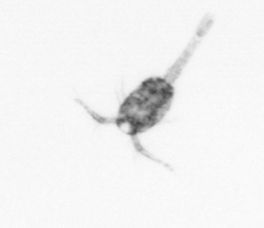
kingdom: Animalia
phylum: Arthropoda
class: Copepoda
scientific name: Copepoda
